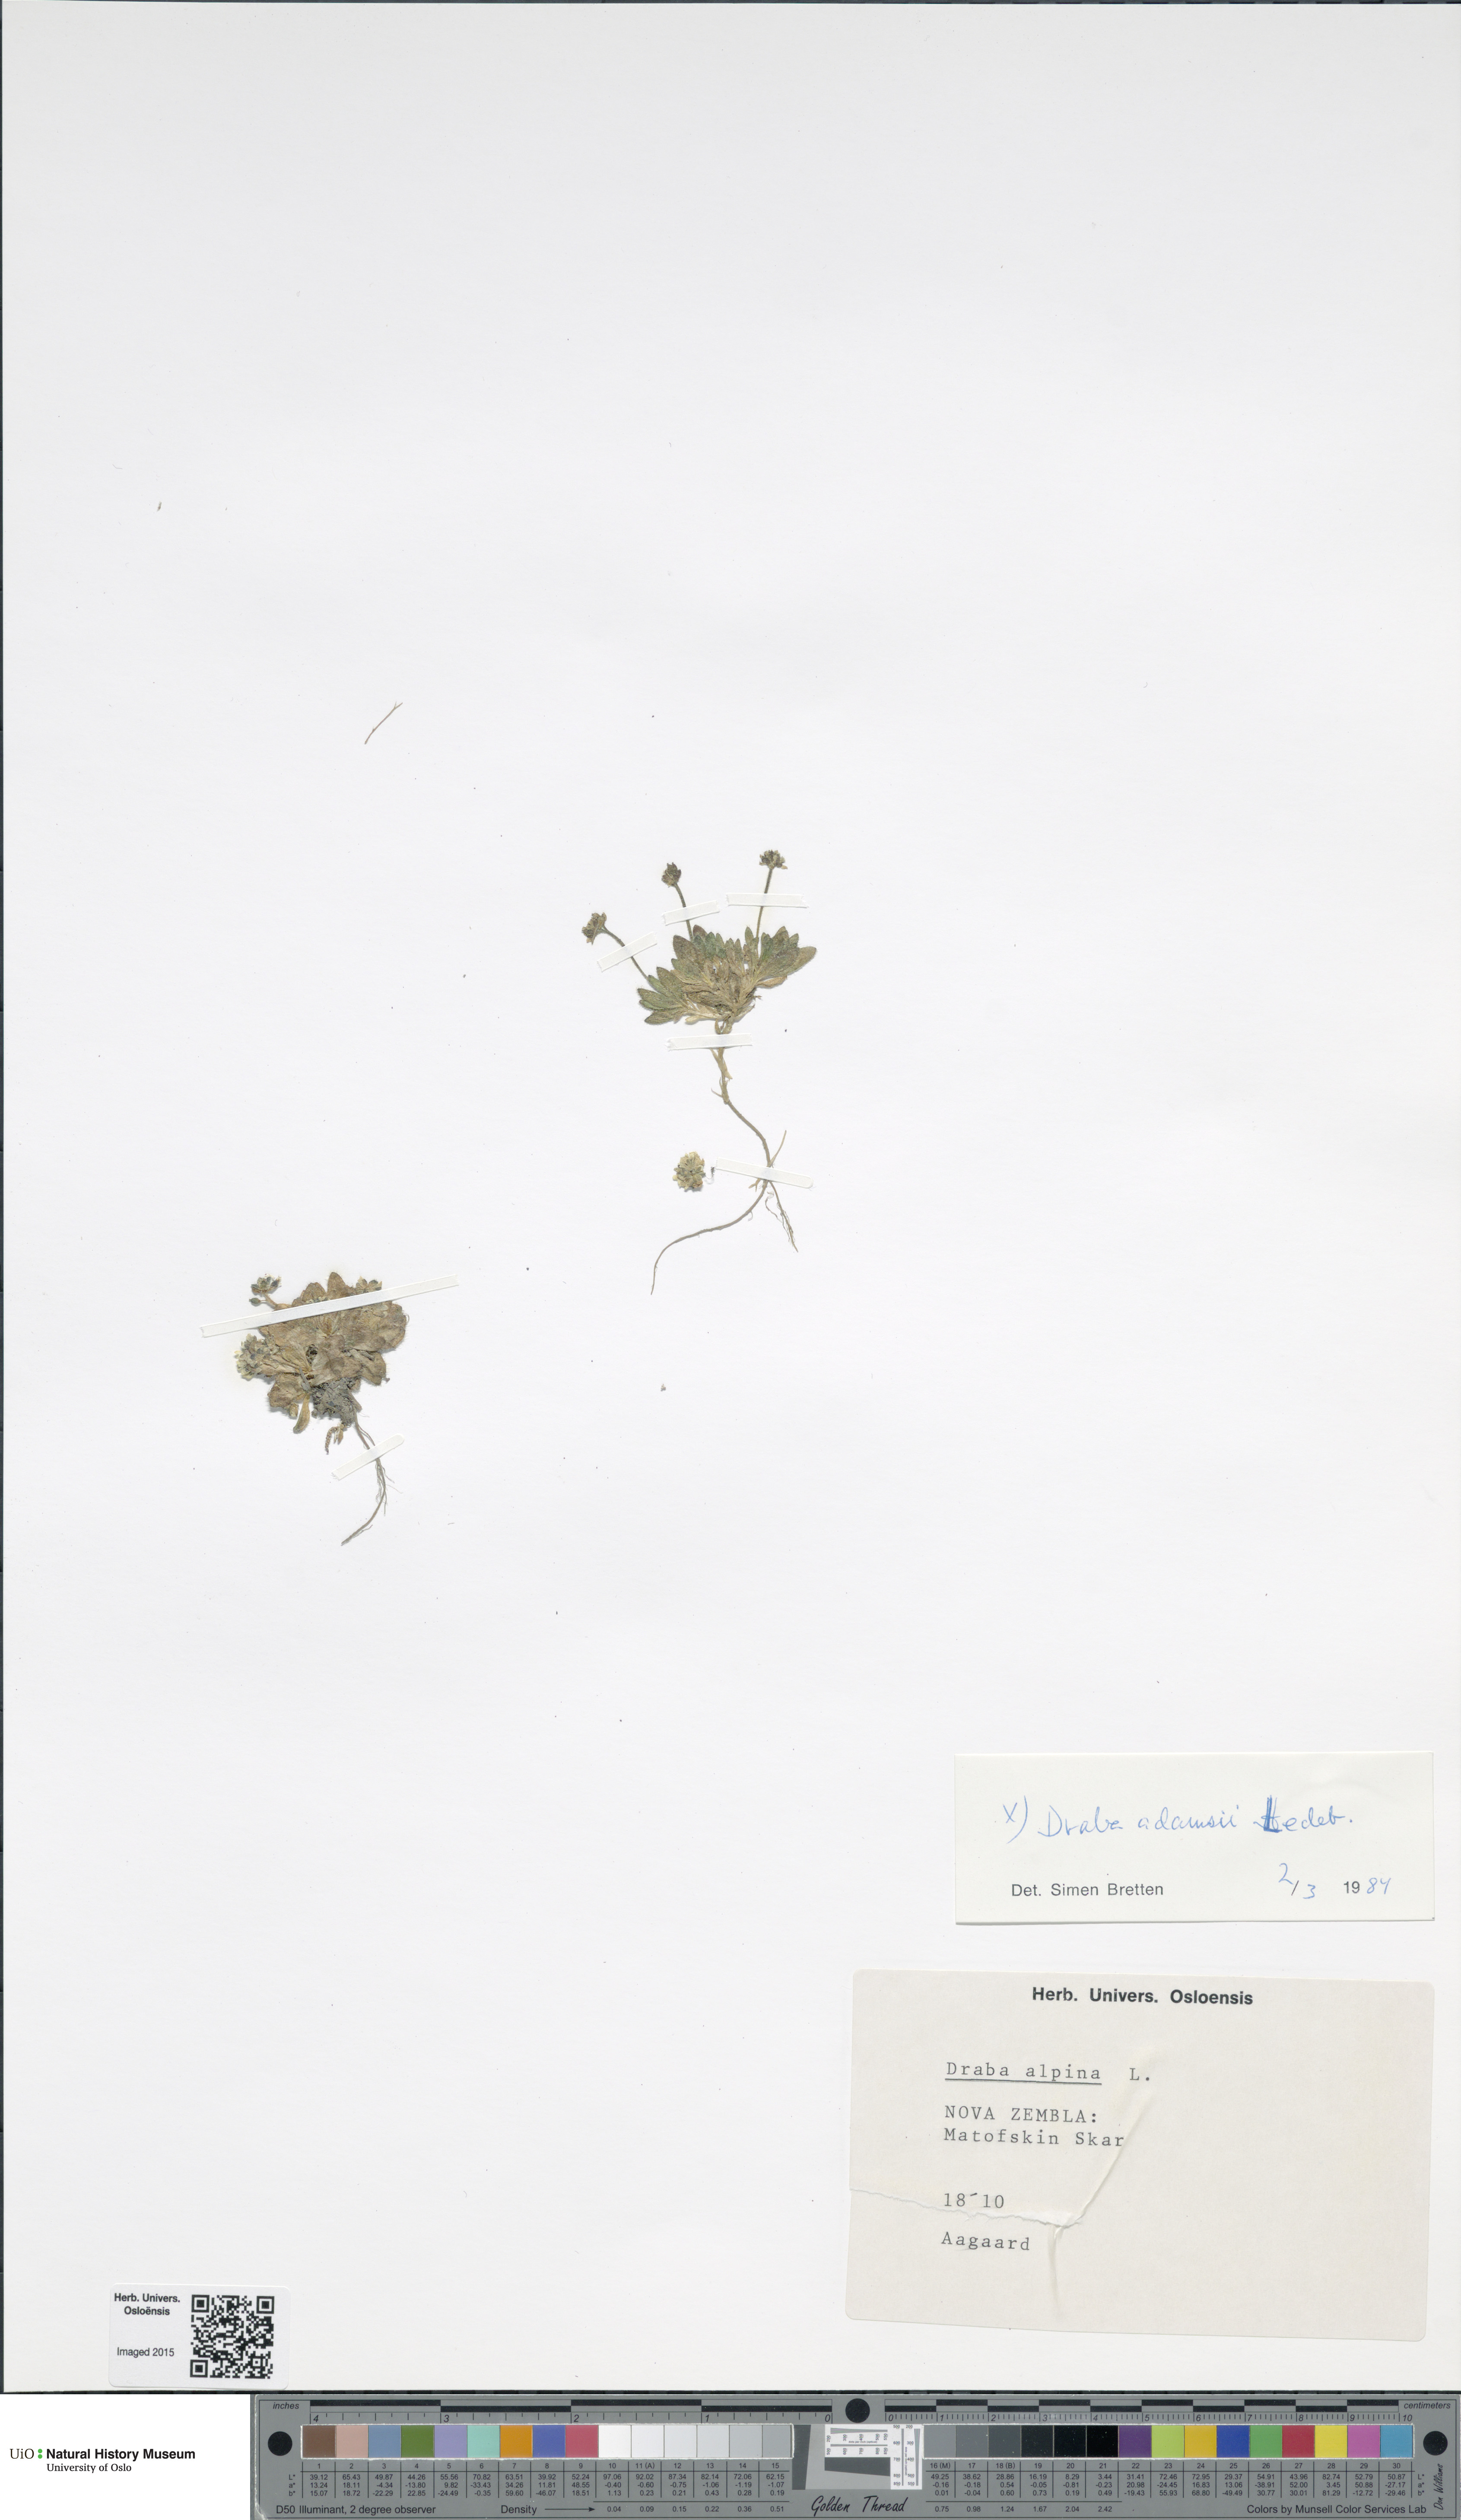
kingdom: Plantae
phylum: Tracheophyta
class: Magnoliopsida
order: Brassicales
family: Brassicaceae
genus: Draba
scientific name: Draba micropetala
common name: Small-flowered draba
